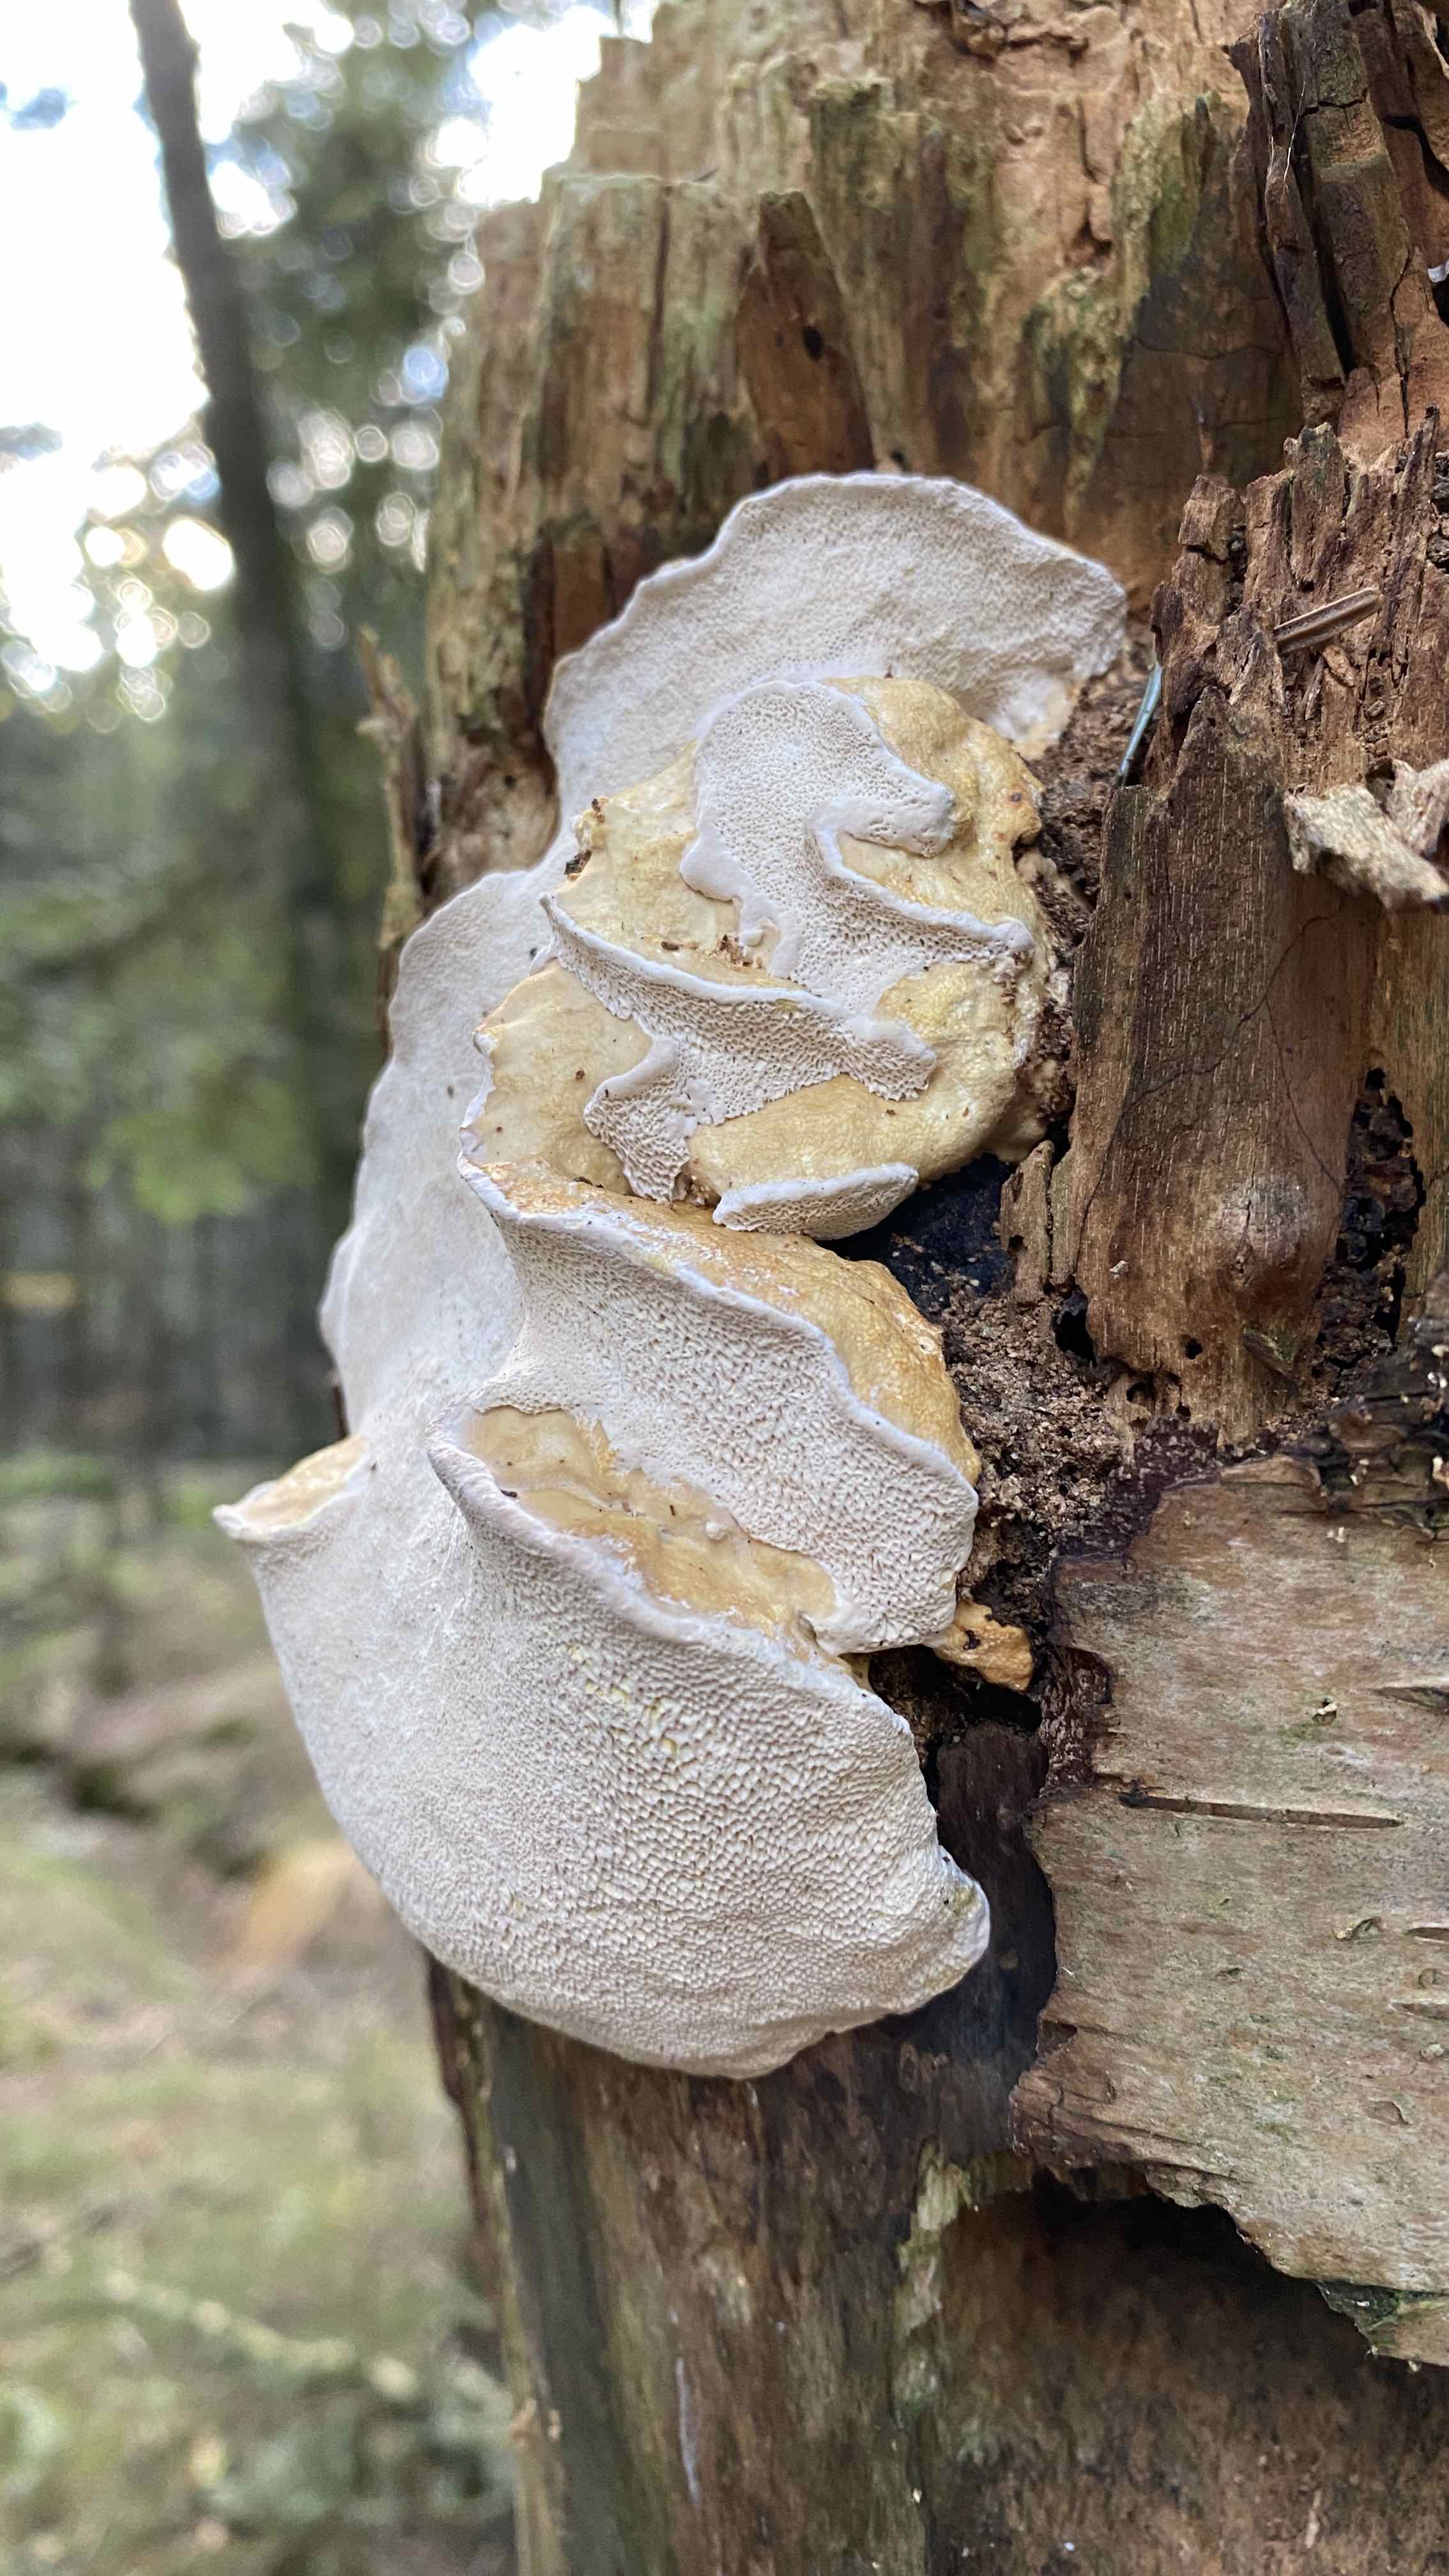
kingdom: Fungi
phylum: Basidiomycota
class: Agaricomycetes
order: Polyporales
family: Fomitopsidaceae
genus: Fomitopsis
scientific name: Fomitopsis pinicola
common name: randbæltet hovporesvamp
